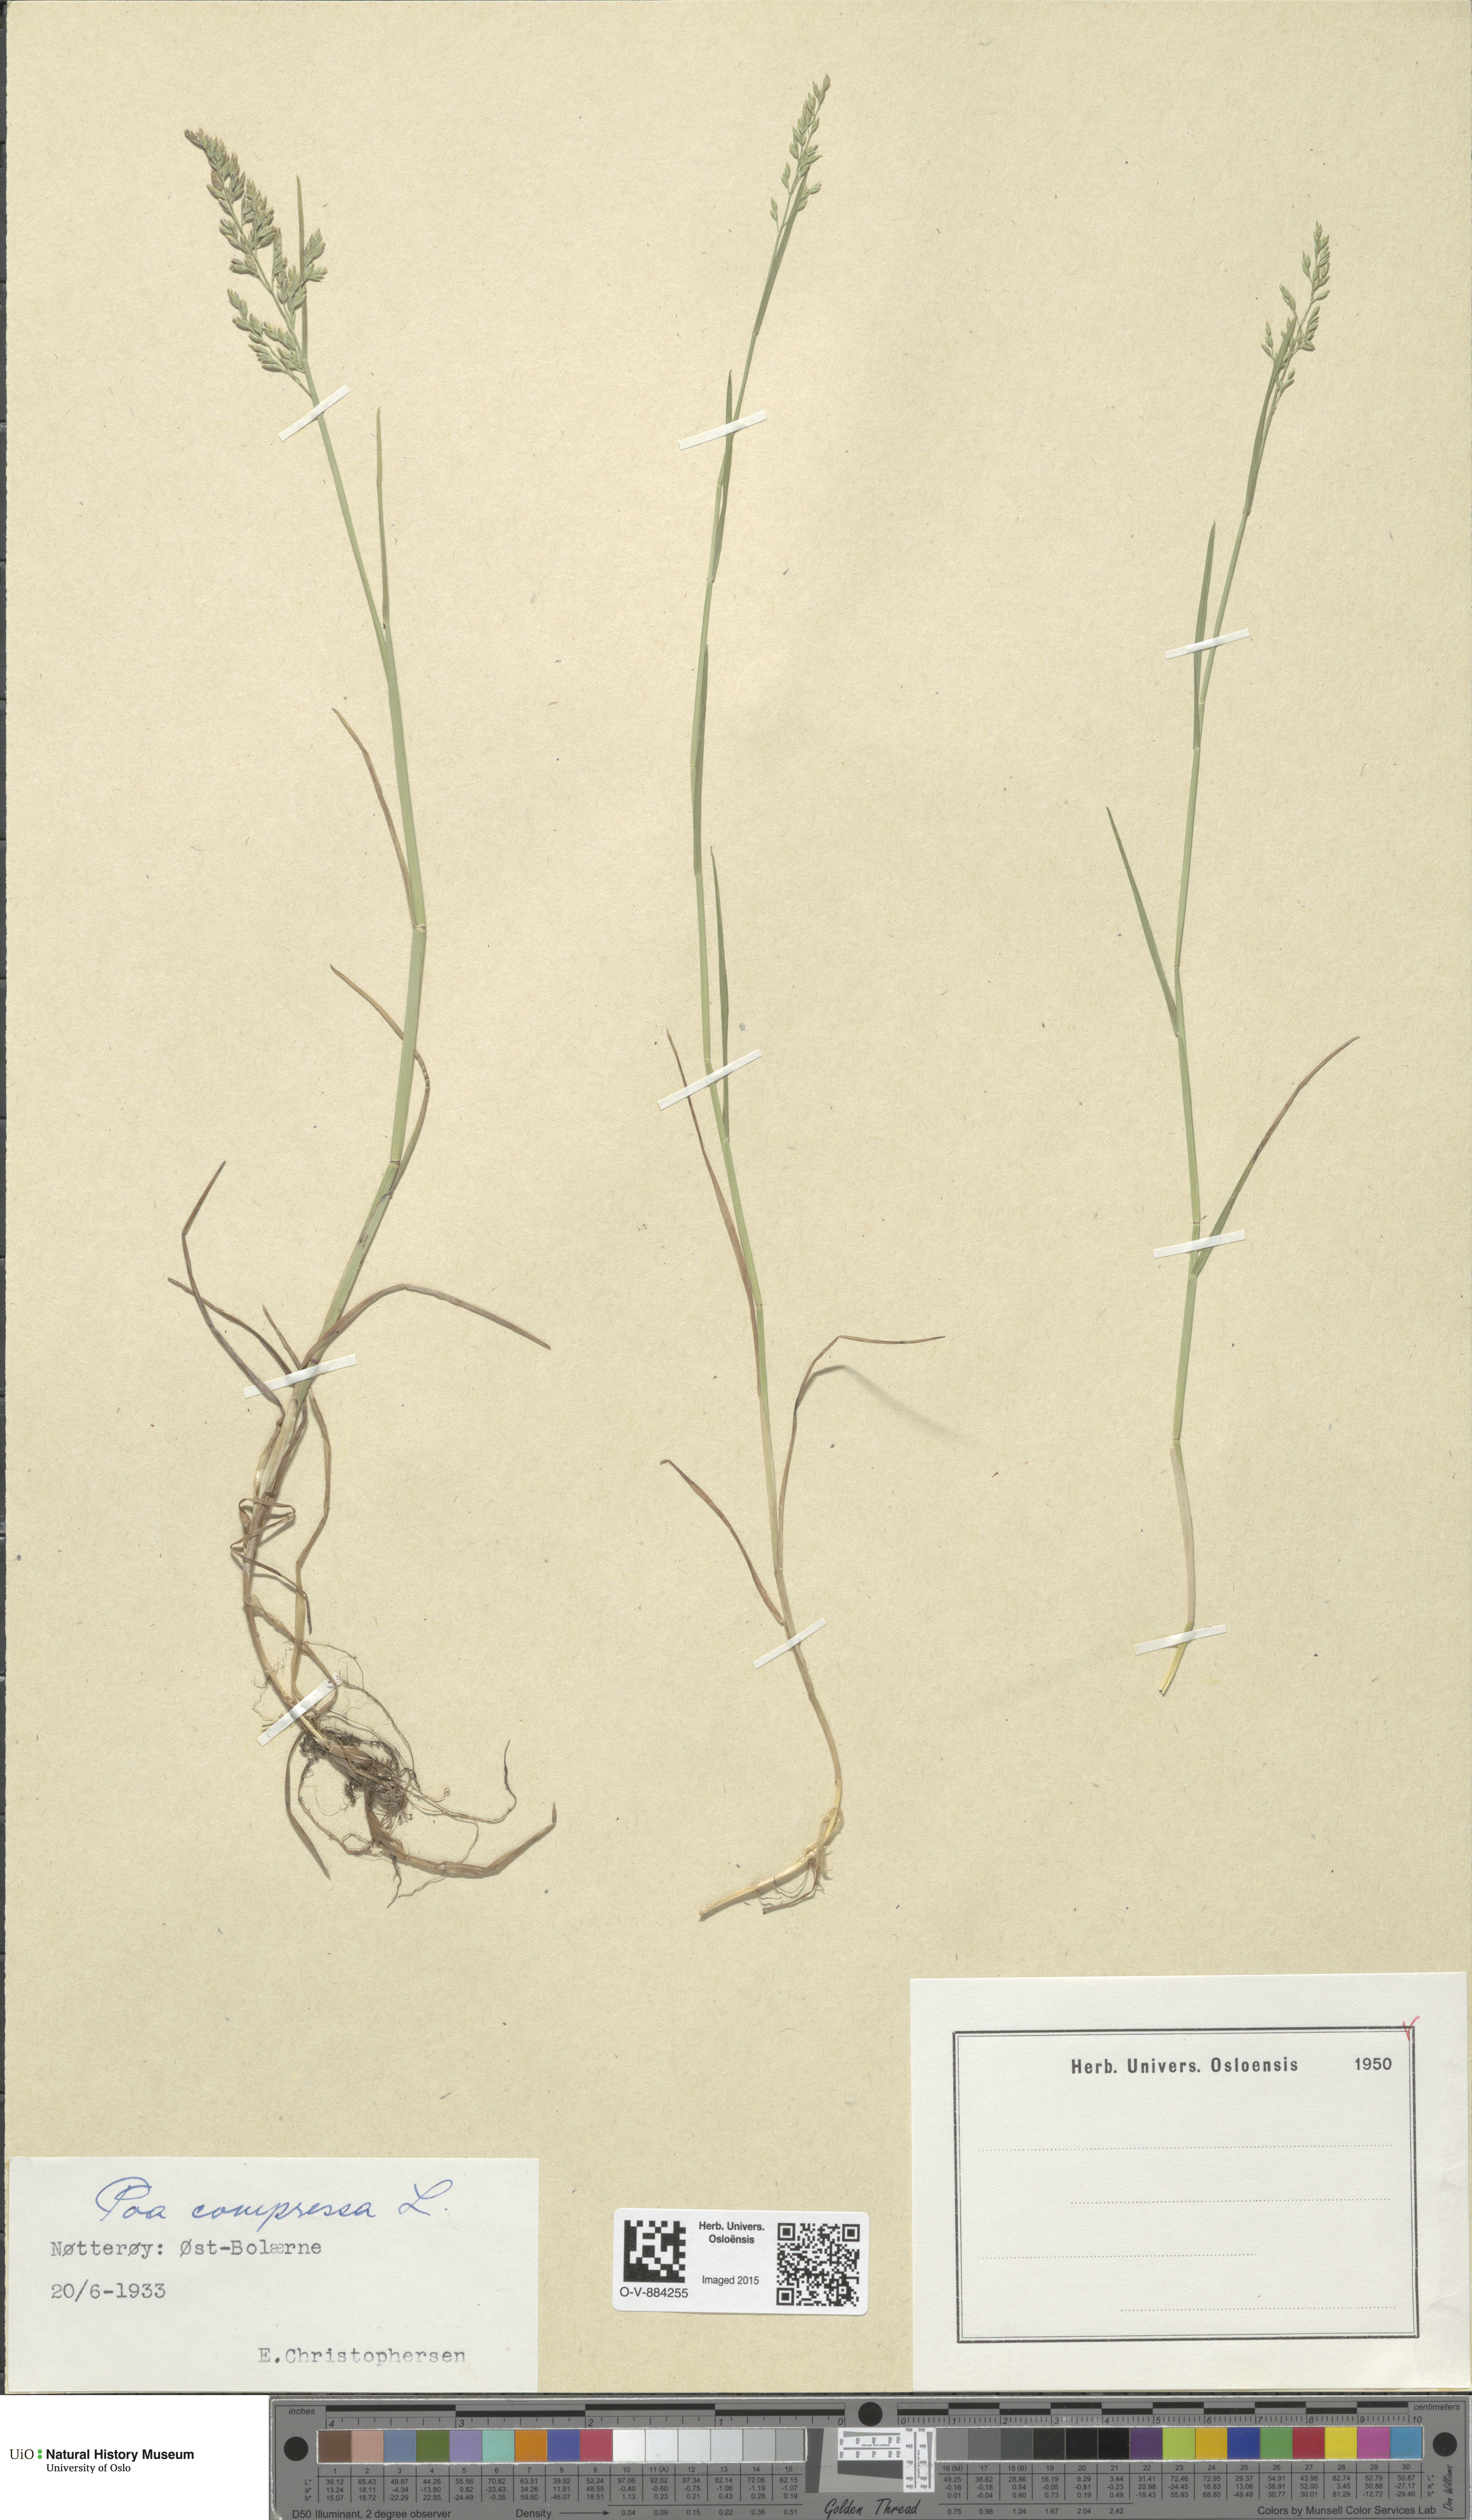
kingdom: Plantae
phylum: Tracheophyta
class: Liliopsida
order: Poales
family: Poaceae
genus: Poa
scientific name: Poa compressa
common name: Canada bluegrass
